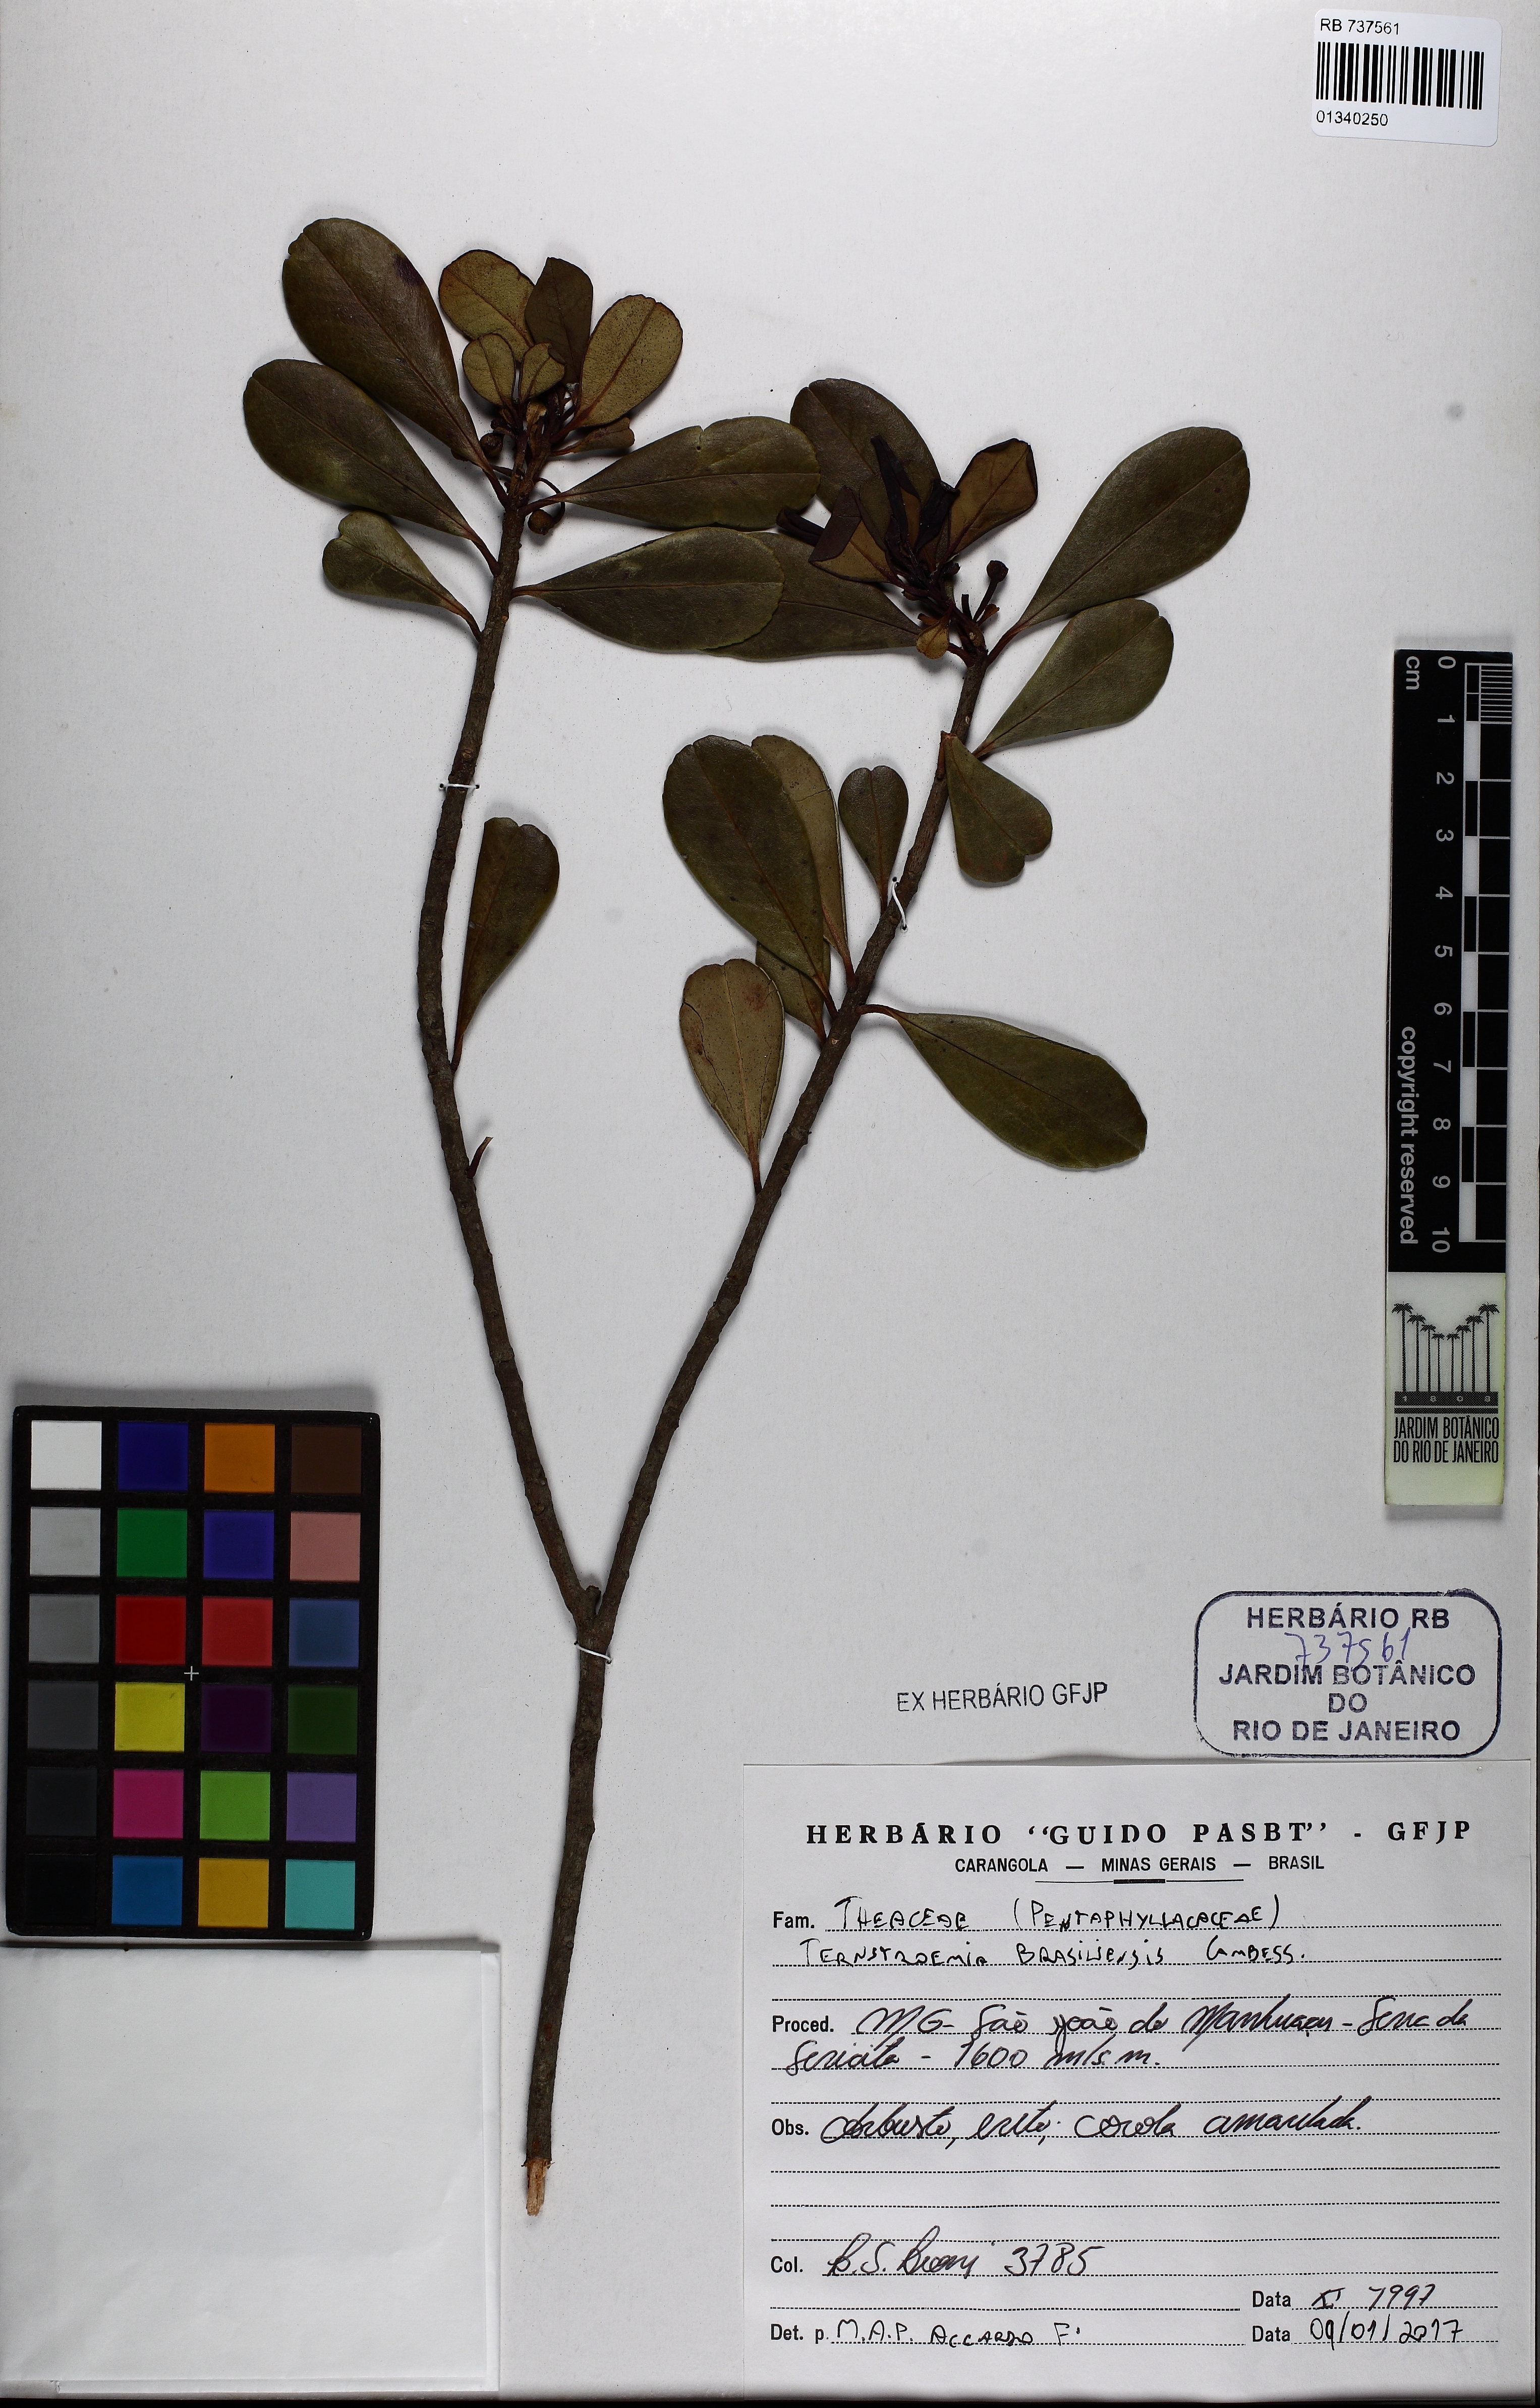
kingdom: Plantae
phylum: Tracheophyta
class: Magnoliopsida
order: Ericales
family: Pentaphylacaceae
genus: Ternstroemia
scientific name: Ternstroemia brasiliensis
